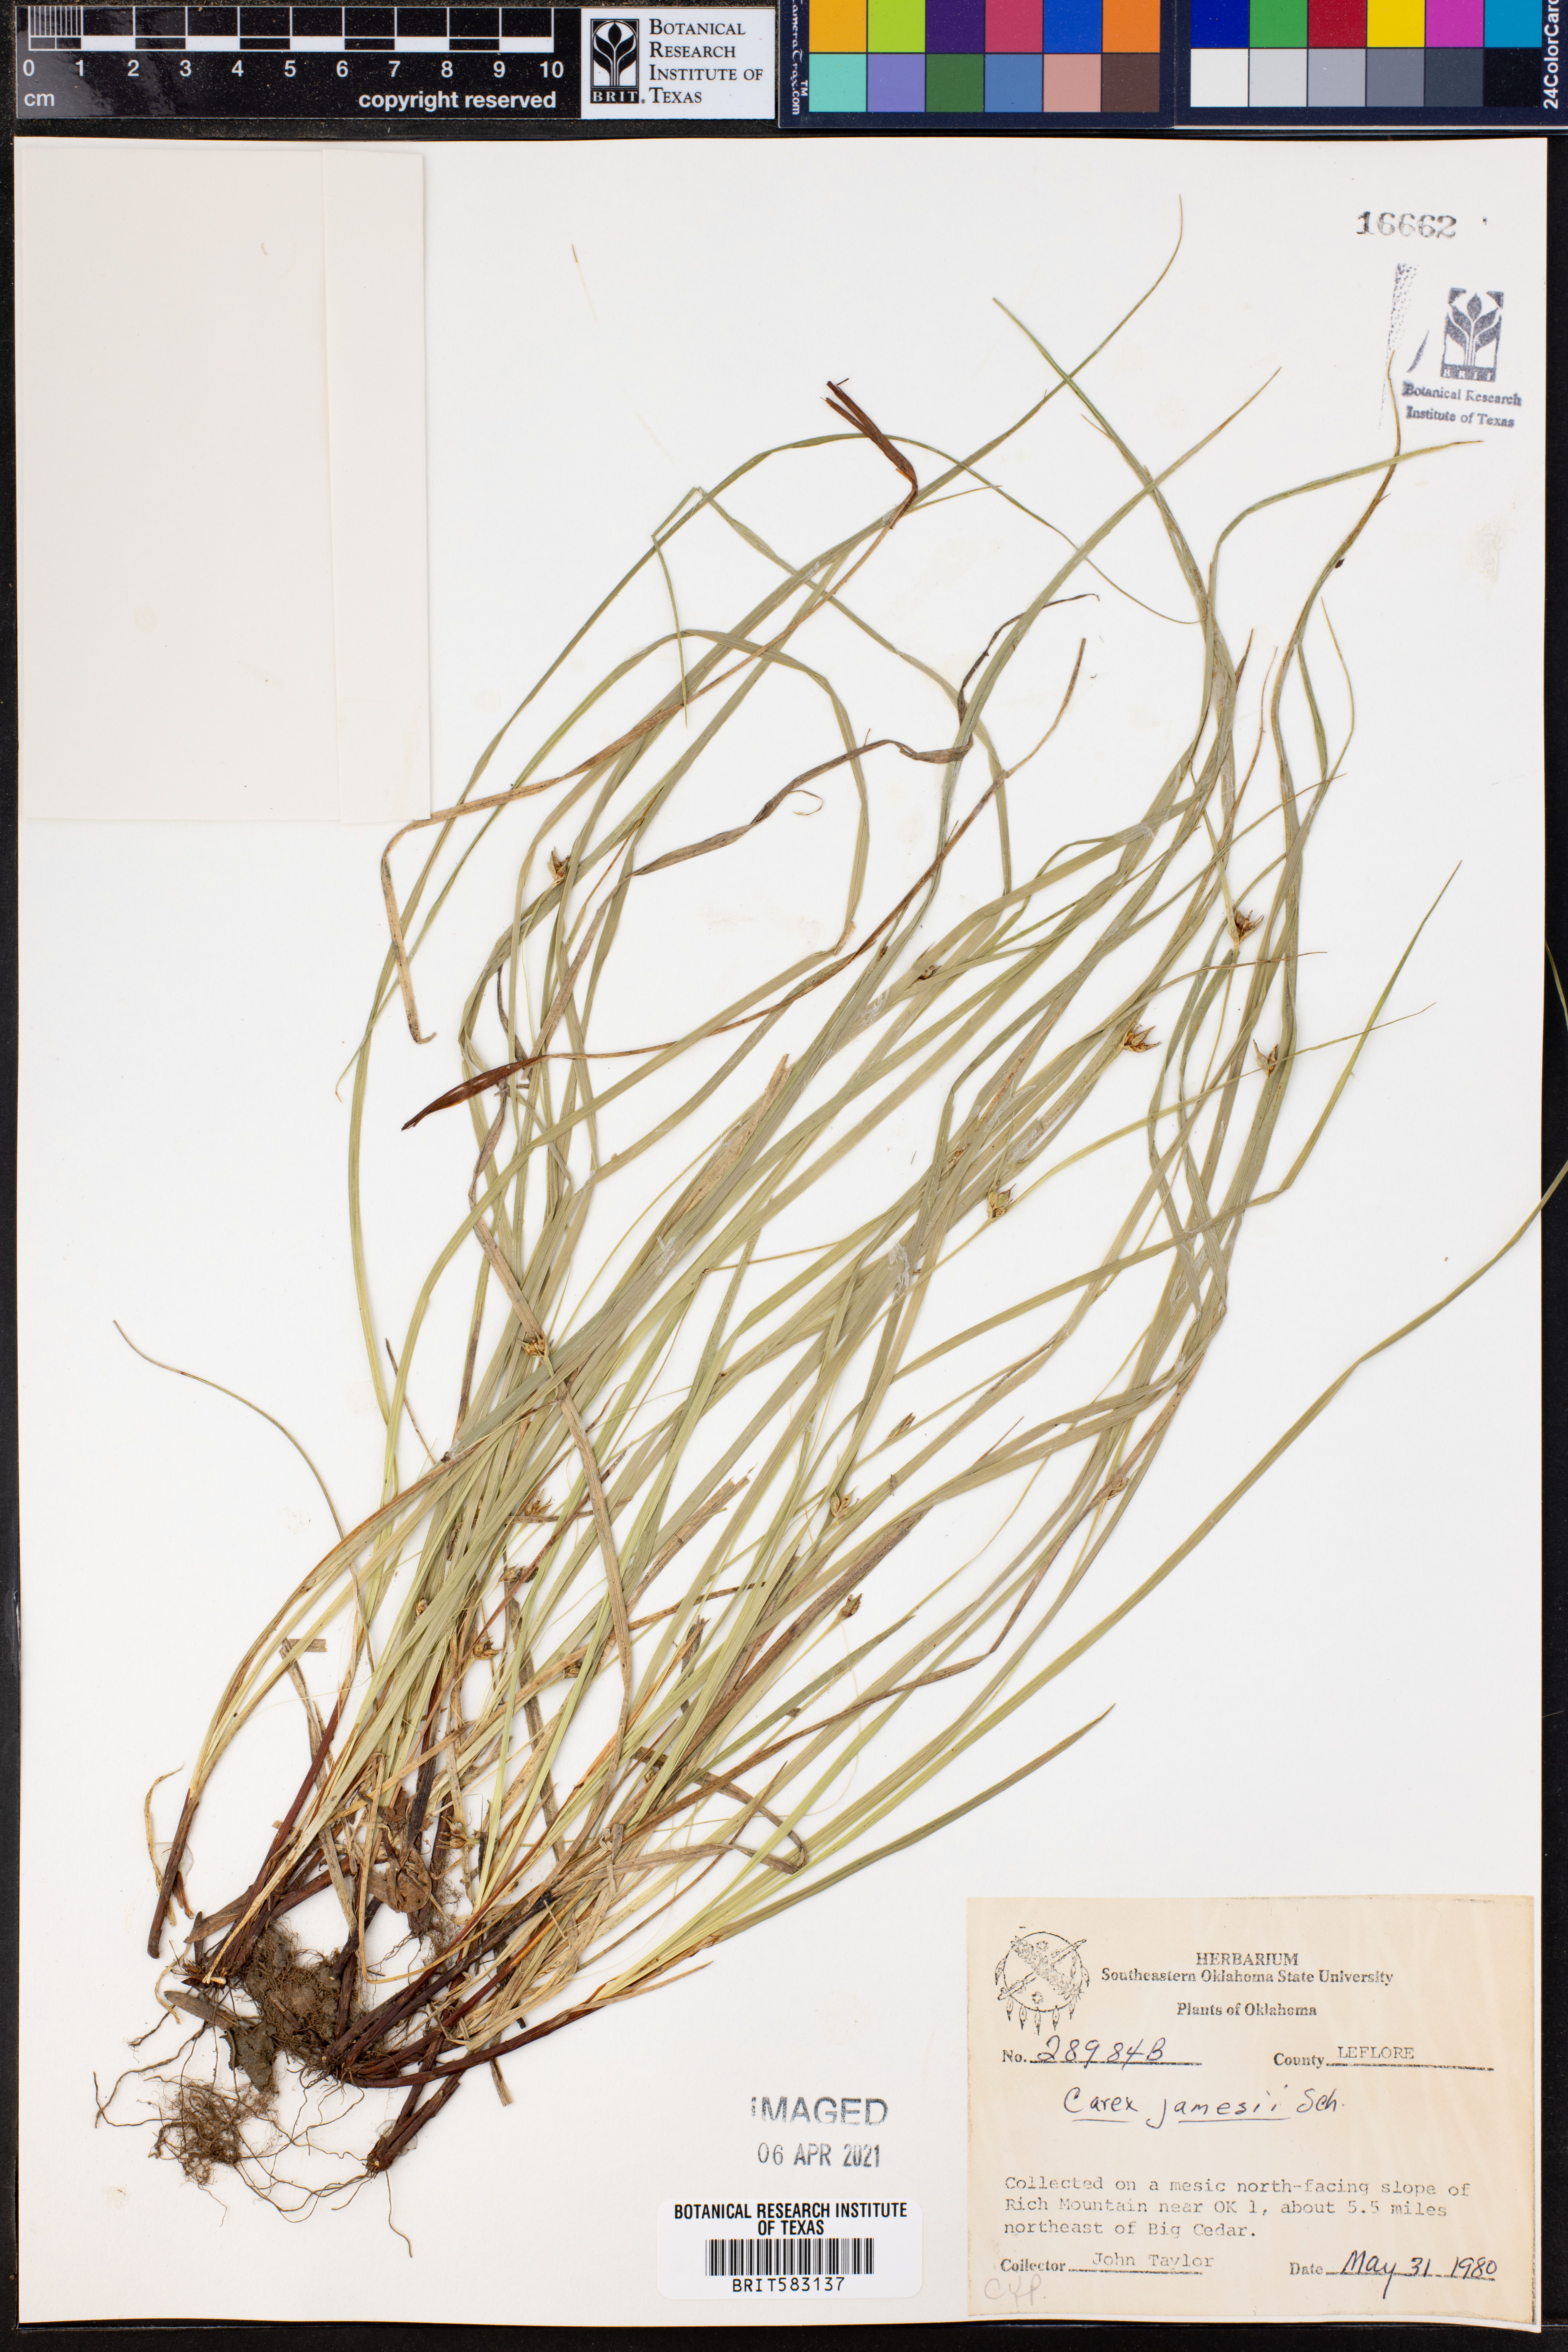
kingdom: Plantae
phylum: Tracheophyta
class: Liliopsida
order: Poales
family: Cyperaceae
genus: Carex
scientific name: Carex jamesii
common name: Grass sedge
